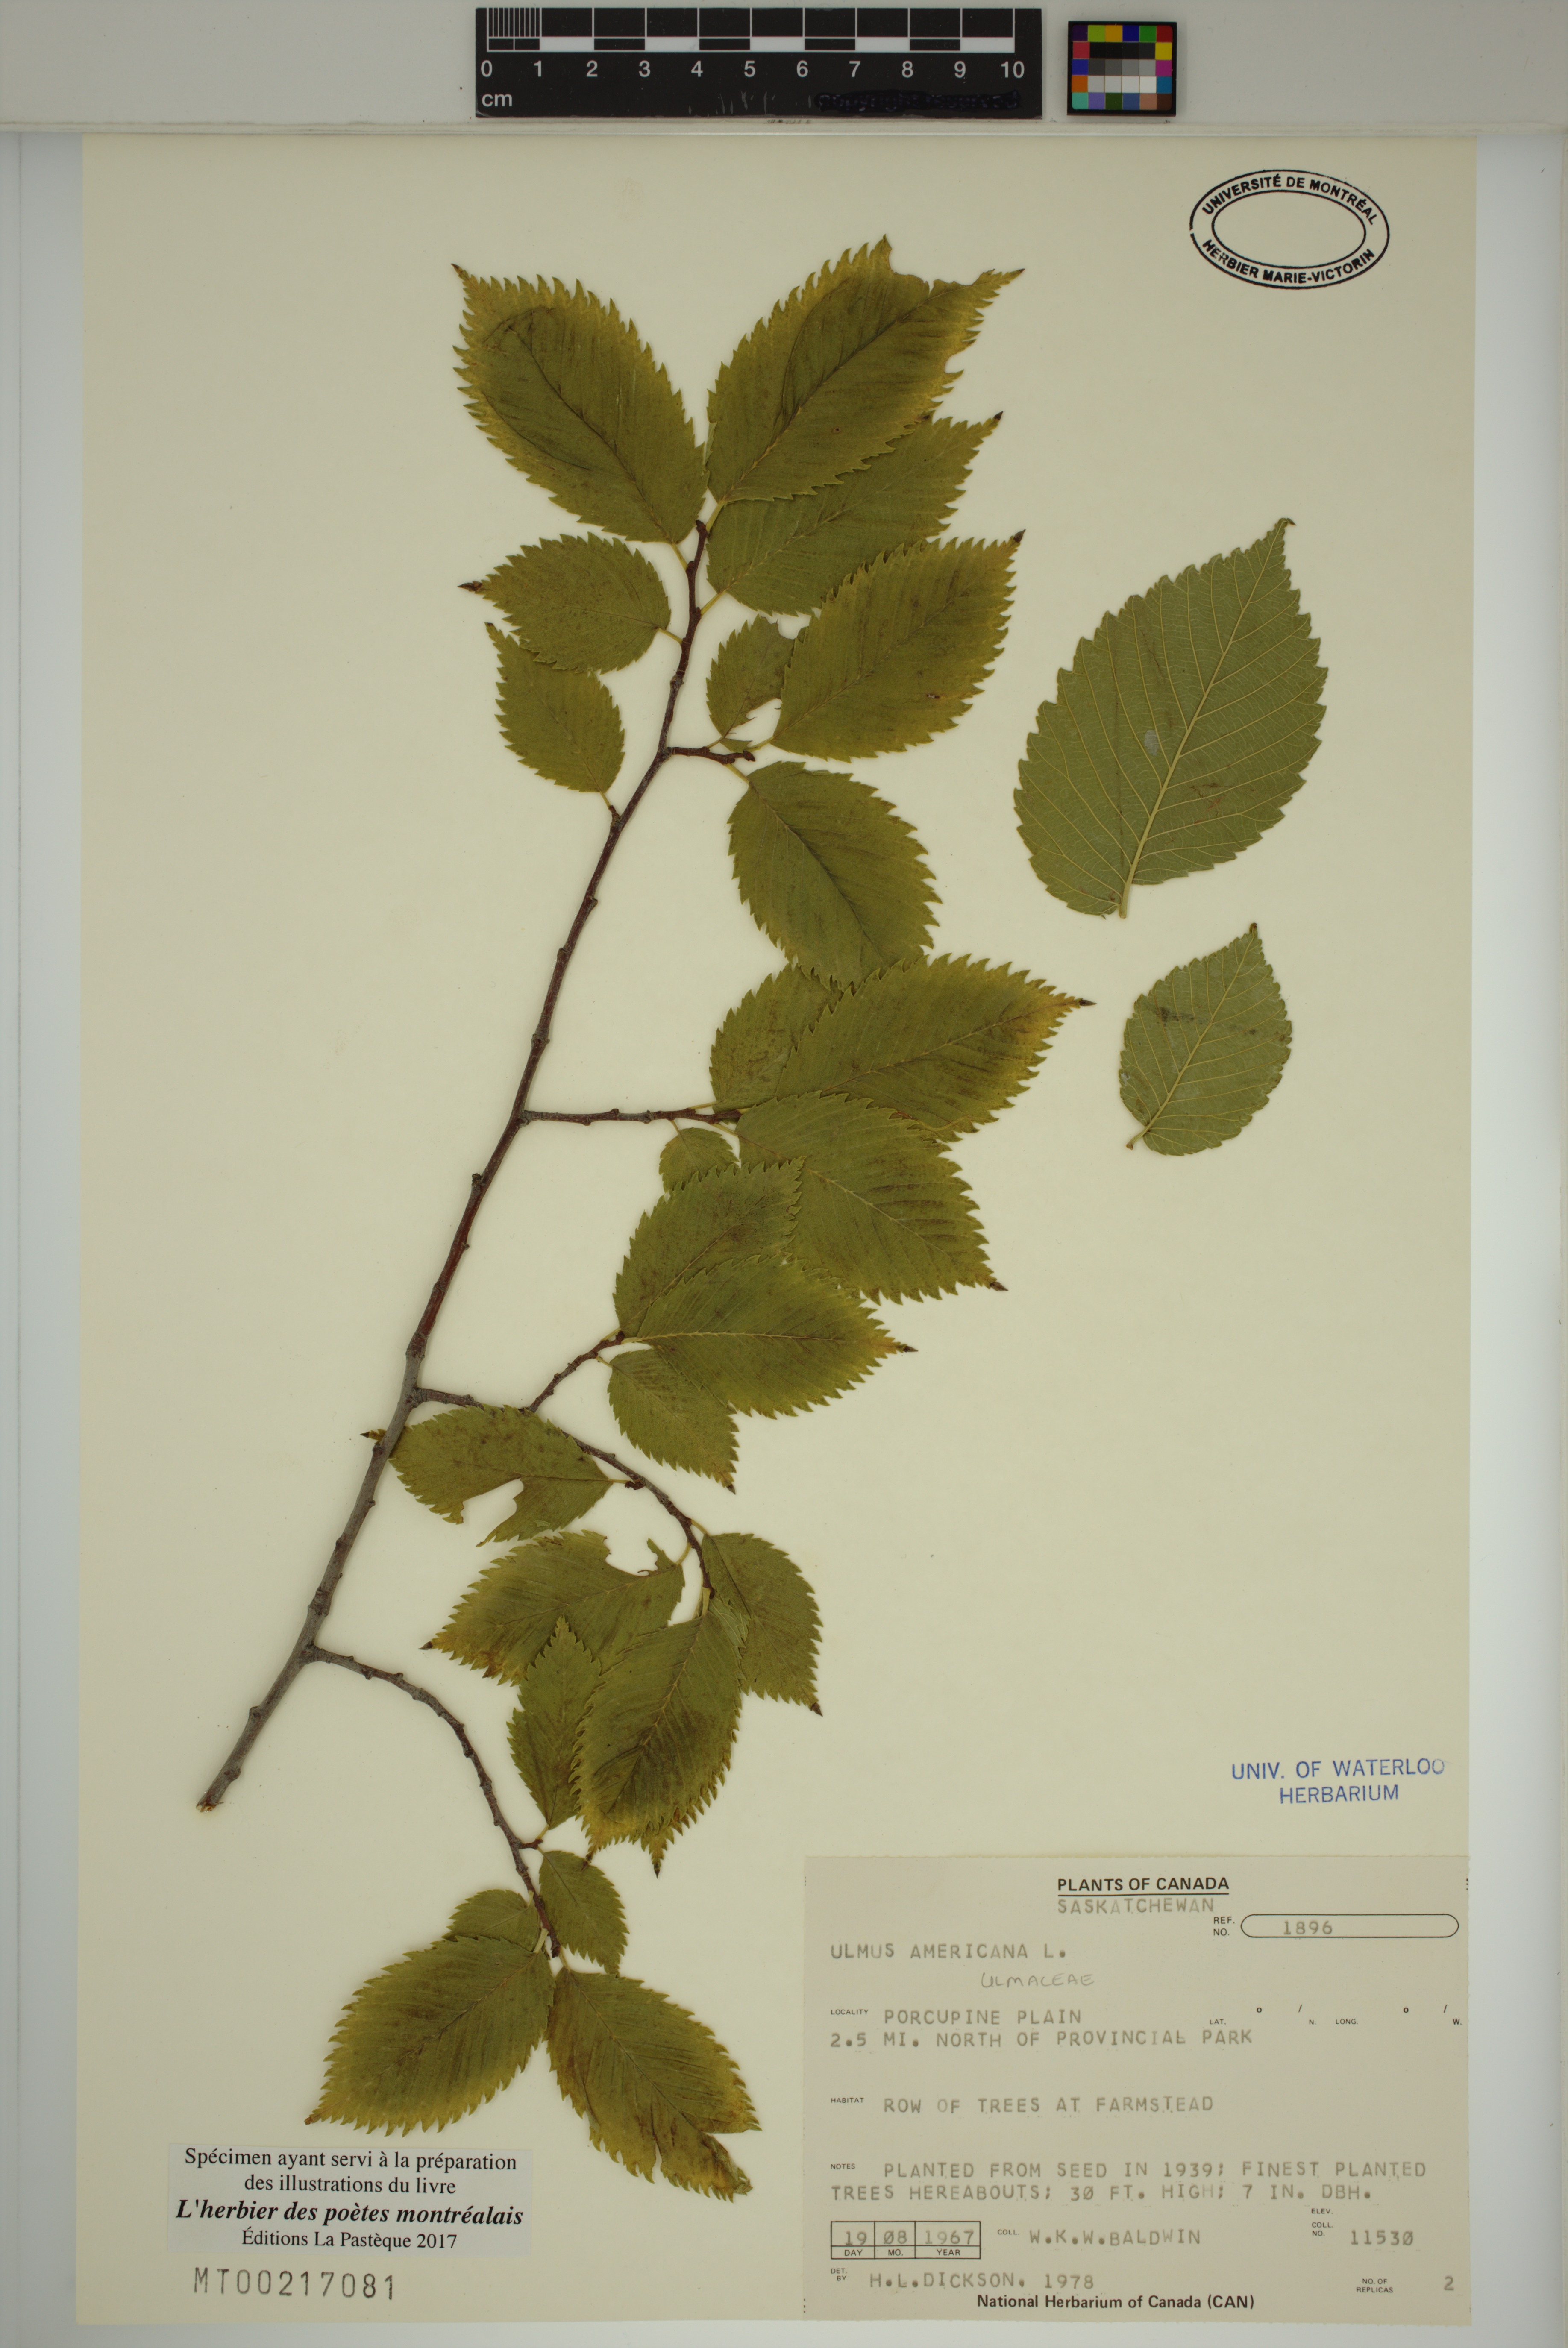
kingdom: Plantae
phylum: Tracheophyta
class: Magnoliopsida
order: Rosales
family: Ulmaceae
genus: Ulmus
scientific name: Ulmus americana
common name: American elm
